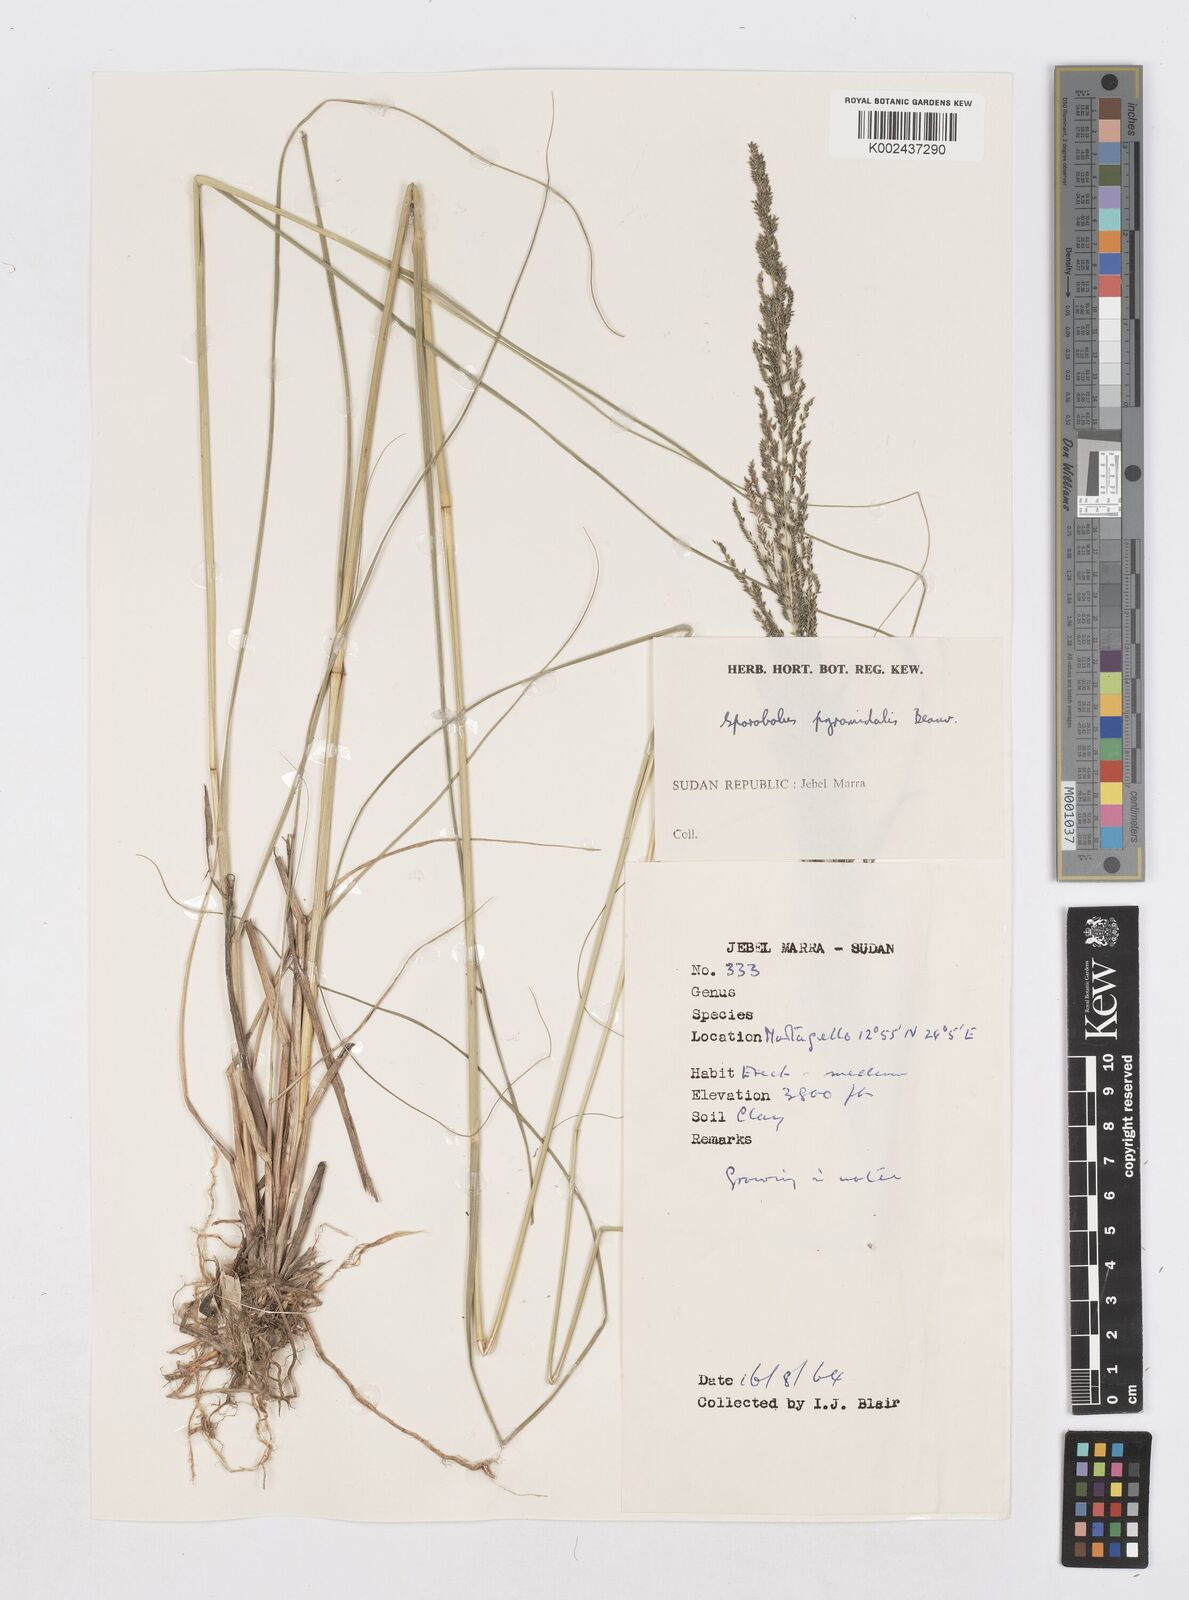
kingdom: Plantae
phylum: Tracheophyta
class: Liliopsida
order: Poales
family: Poaceae
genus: Sporobolus
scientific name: Sporobolus pyramidalis
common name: West indian dropseed
